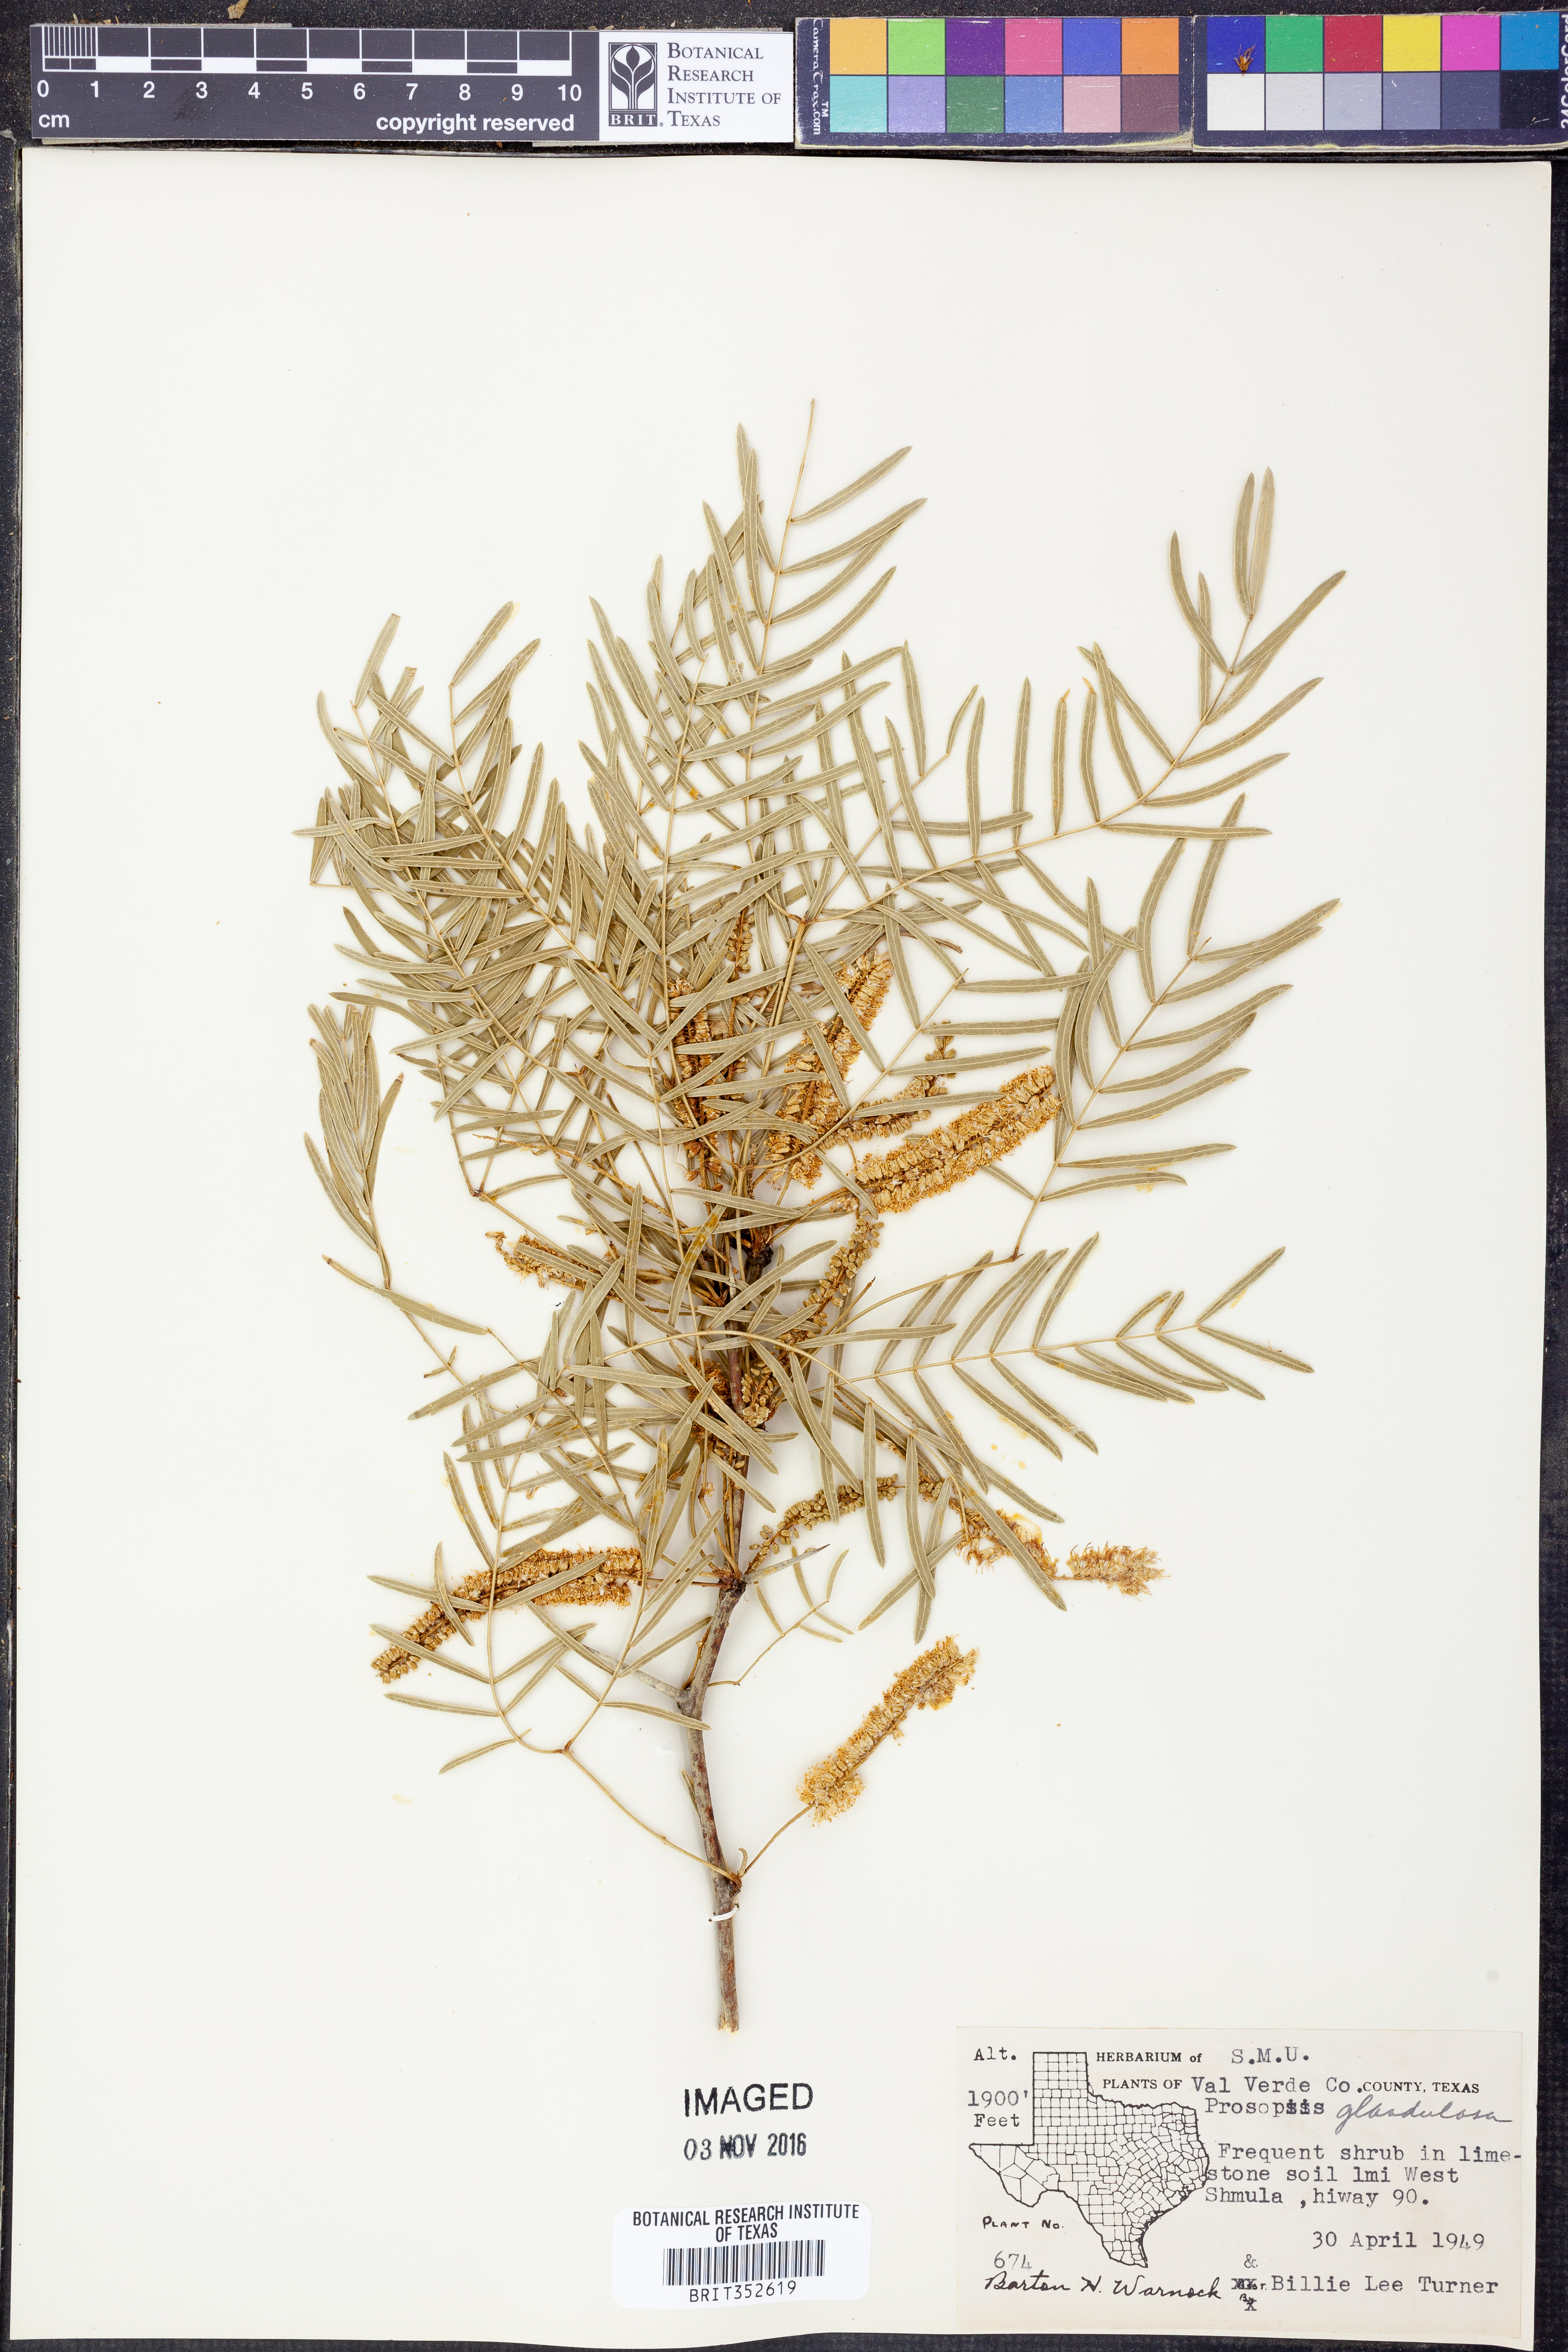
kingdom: Plantae
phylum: Tracheophyta
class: Magnoliopsida
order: Fabales
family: Fabaceae
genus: Prosopis
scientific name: Prosopis glandulosa
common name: Honey mesquite
